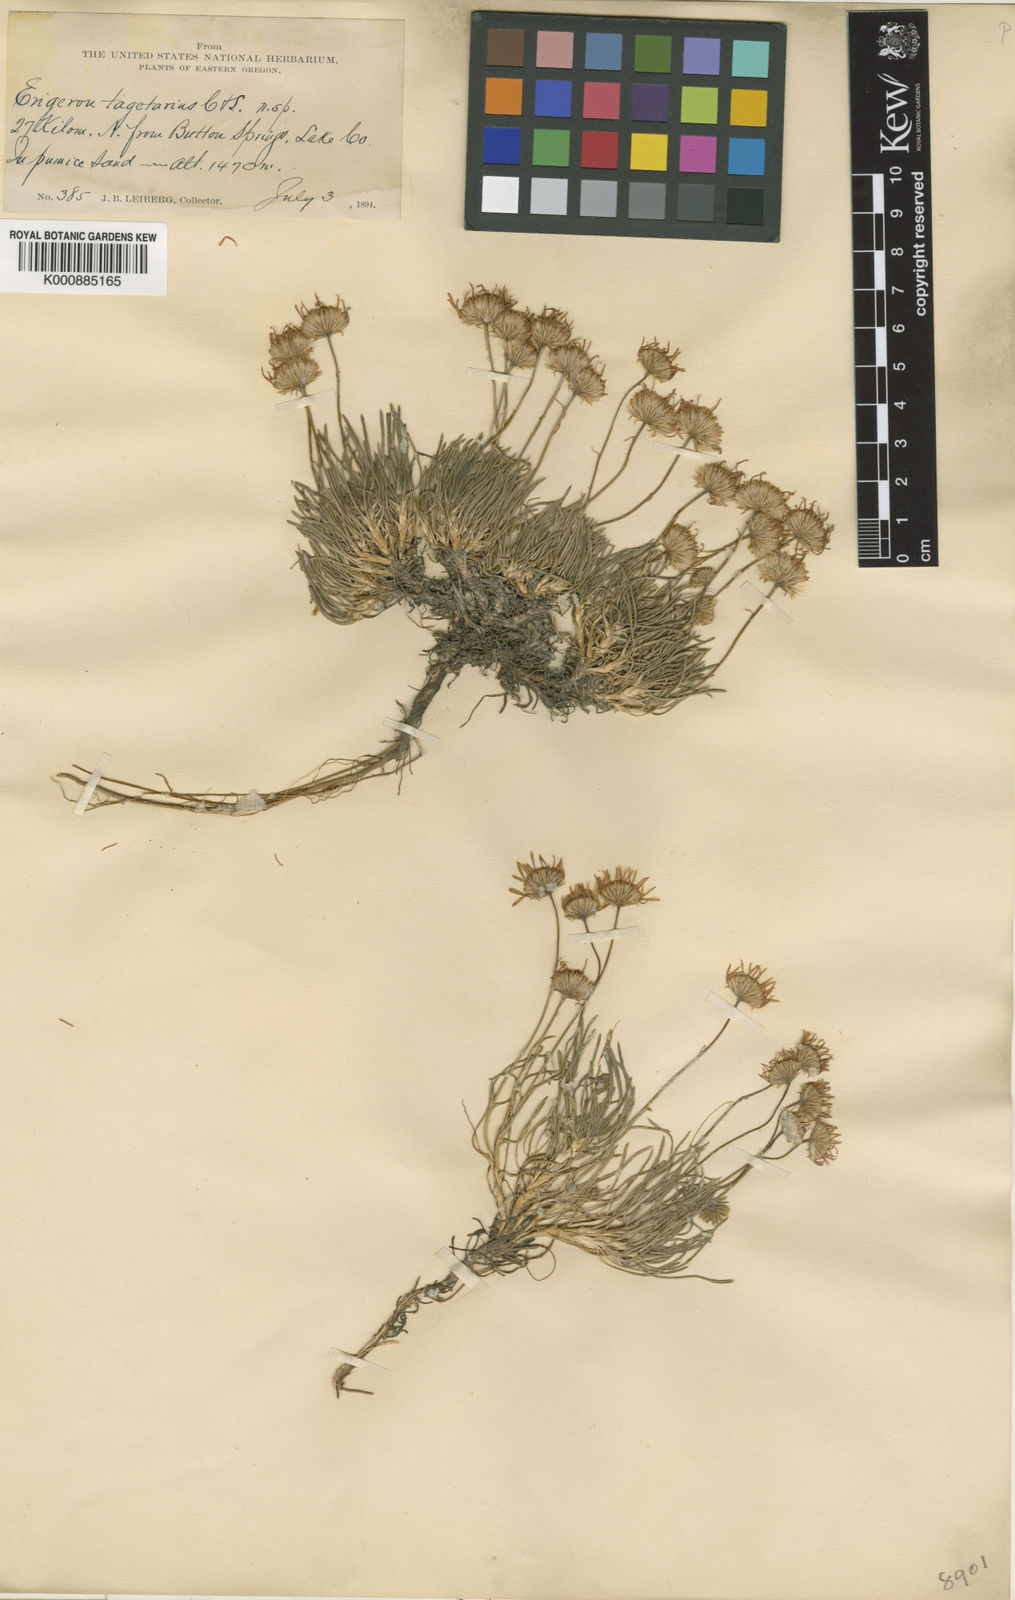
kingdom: Plantae
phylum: Tracheophyta
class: Magnoliopsida
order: Asterales
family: Asteraceae
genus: Erigeron
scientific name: Erigeron
